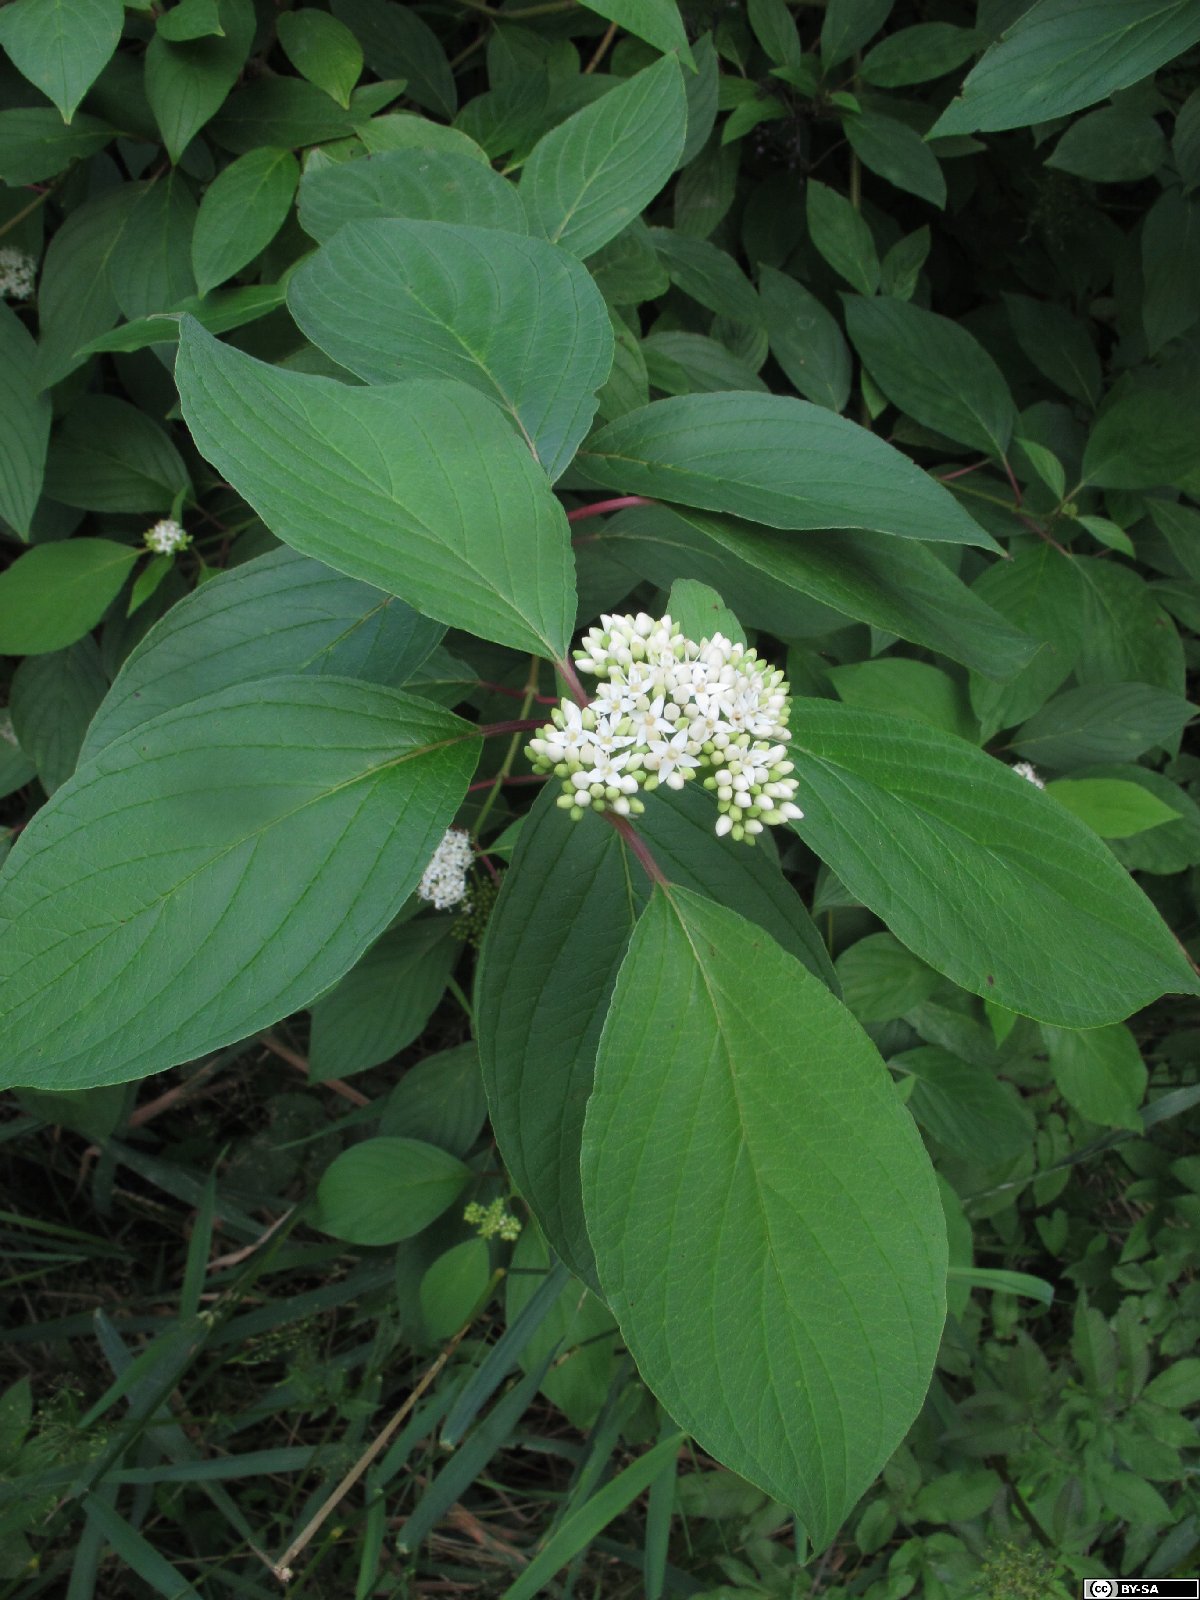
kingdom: Plantae
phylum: Tracheophyta
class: Magnoliopsida
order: Cornales
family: Cornaceae
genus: Cornus
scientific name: Cornus sericea
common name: Red-osier dogwood
